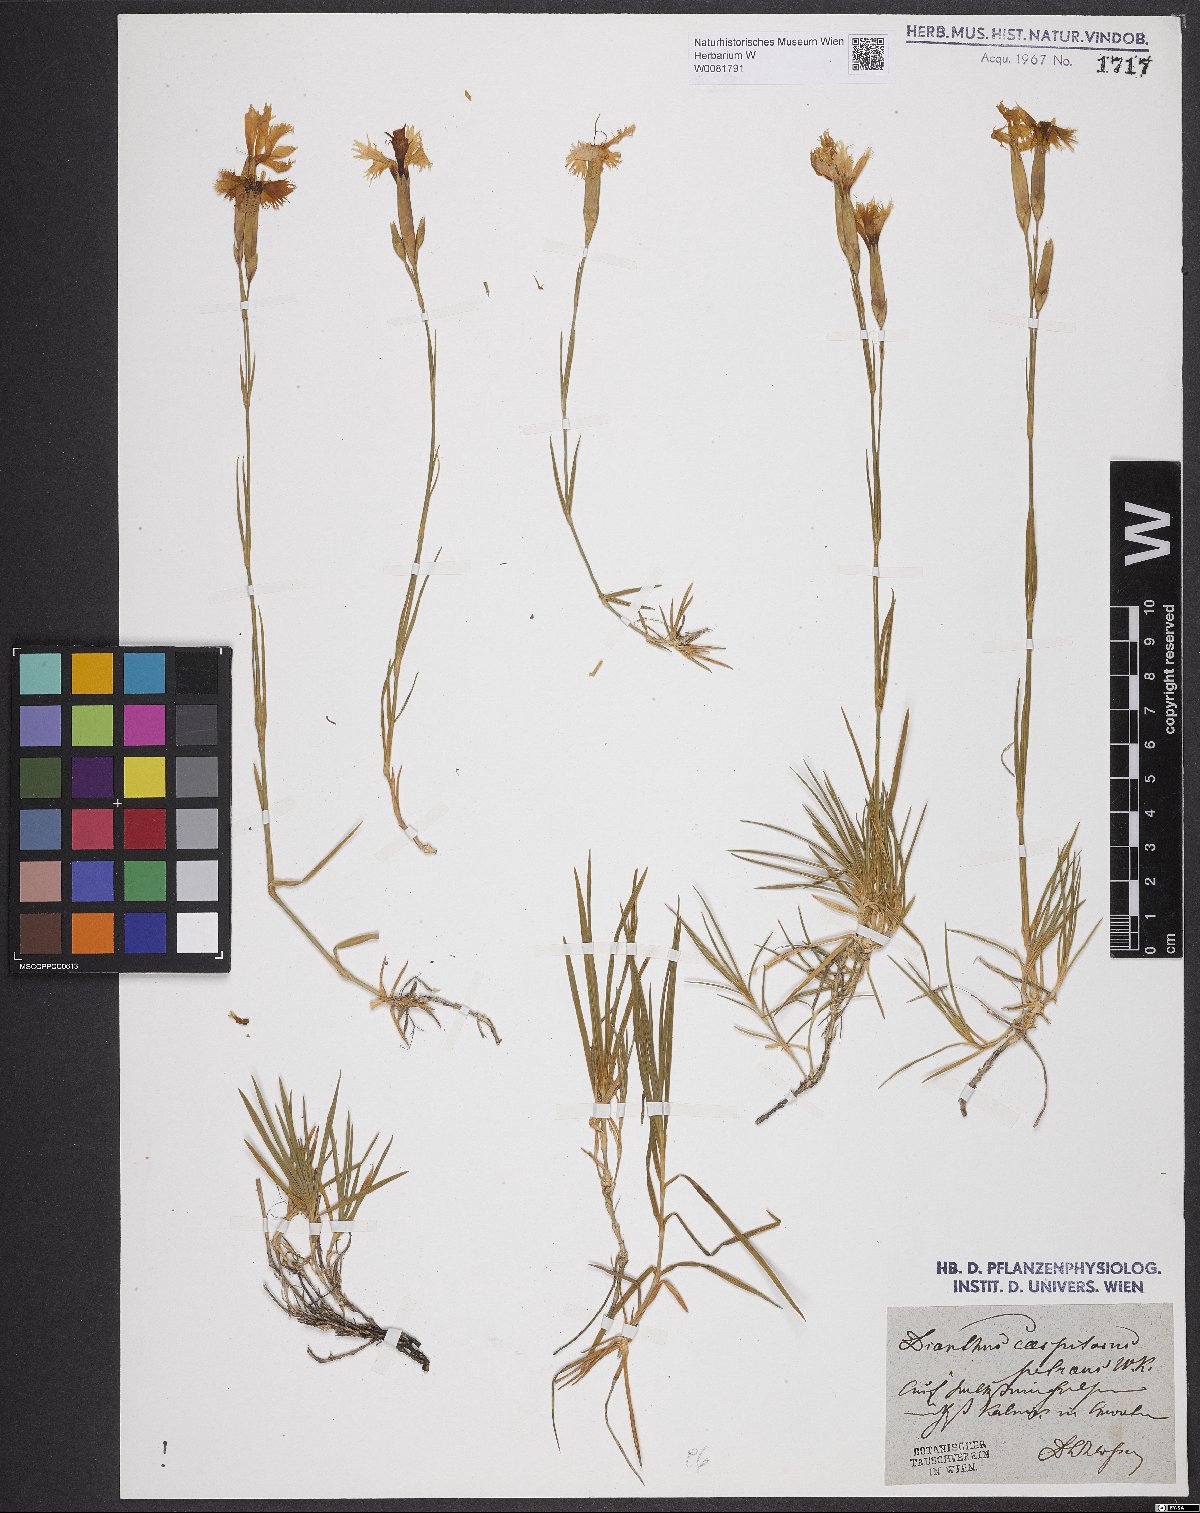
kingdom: Plantae
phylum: Tracheophyta
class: Magnoliopsida
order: Caryophyllales
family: Caryophyllaceae
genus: Dianthus
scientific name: Dianthus caespitosus
